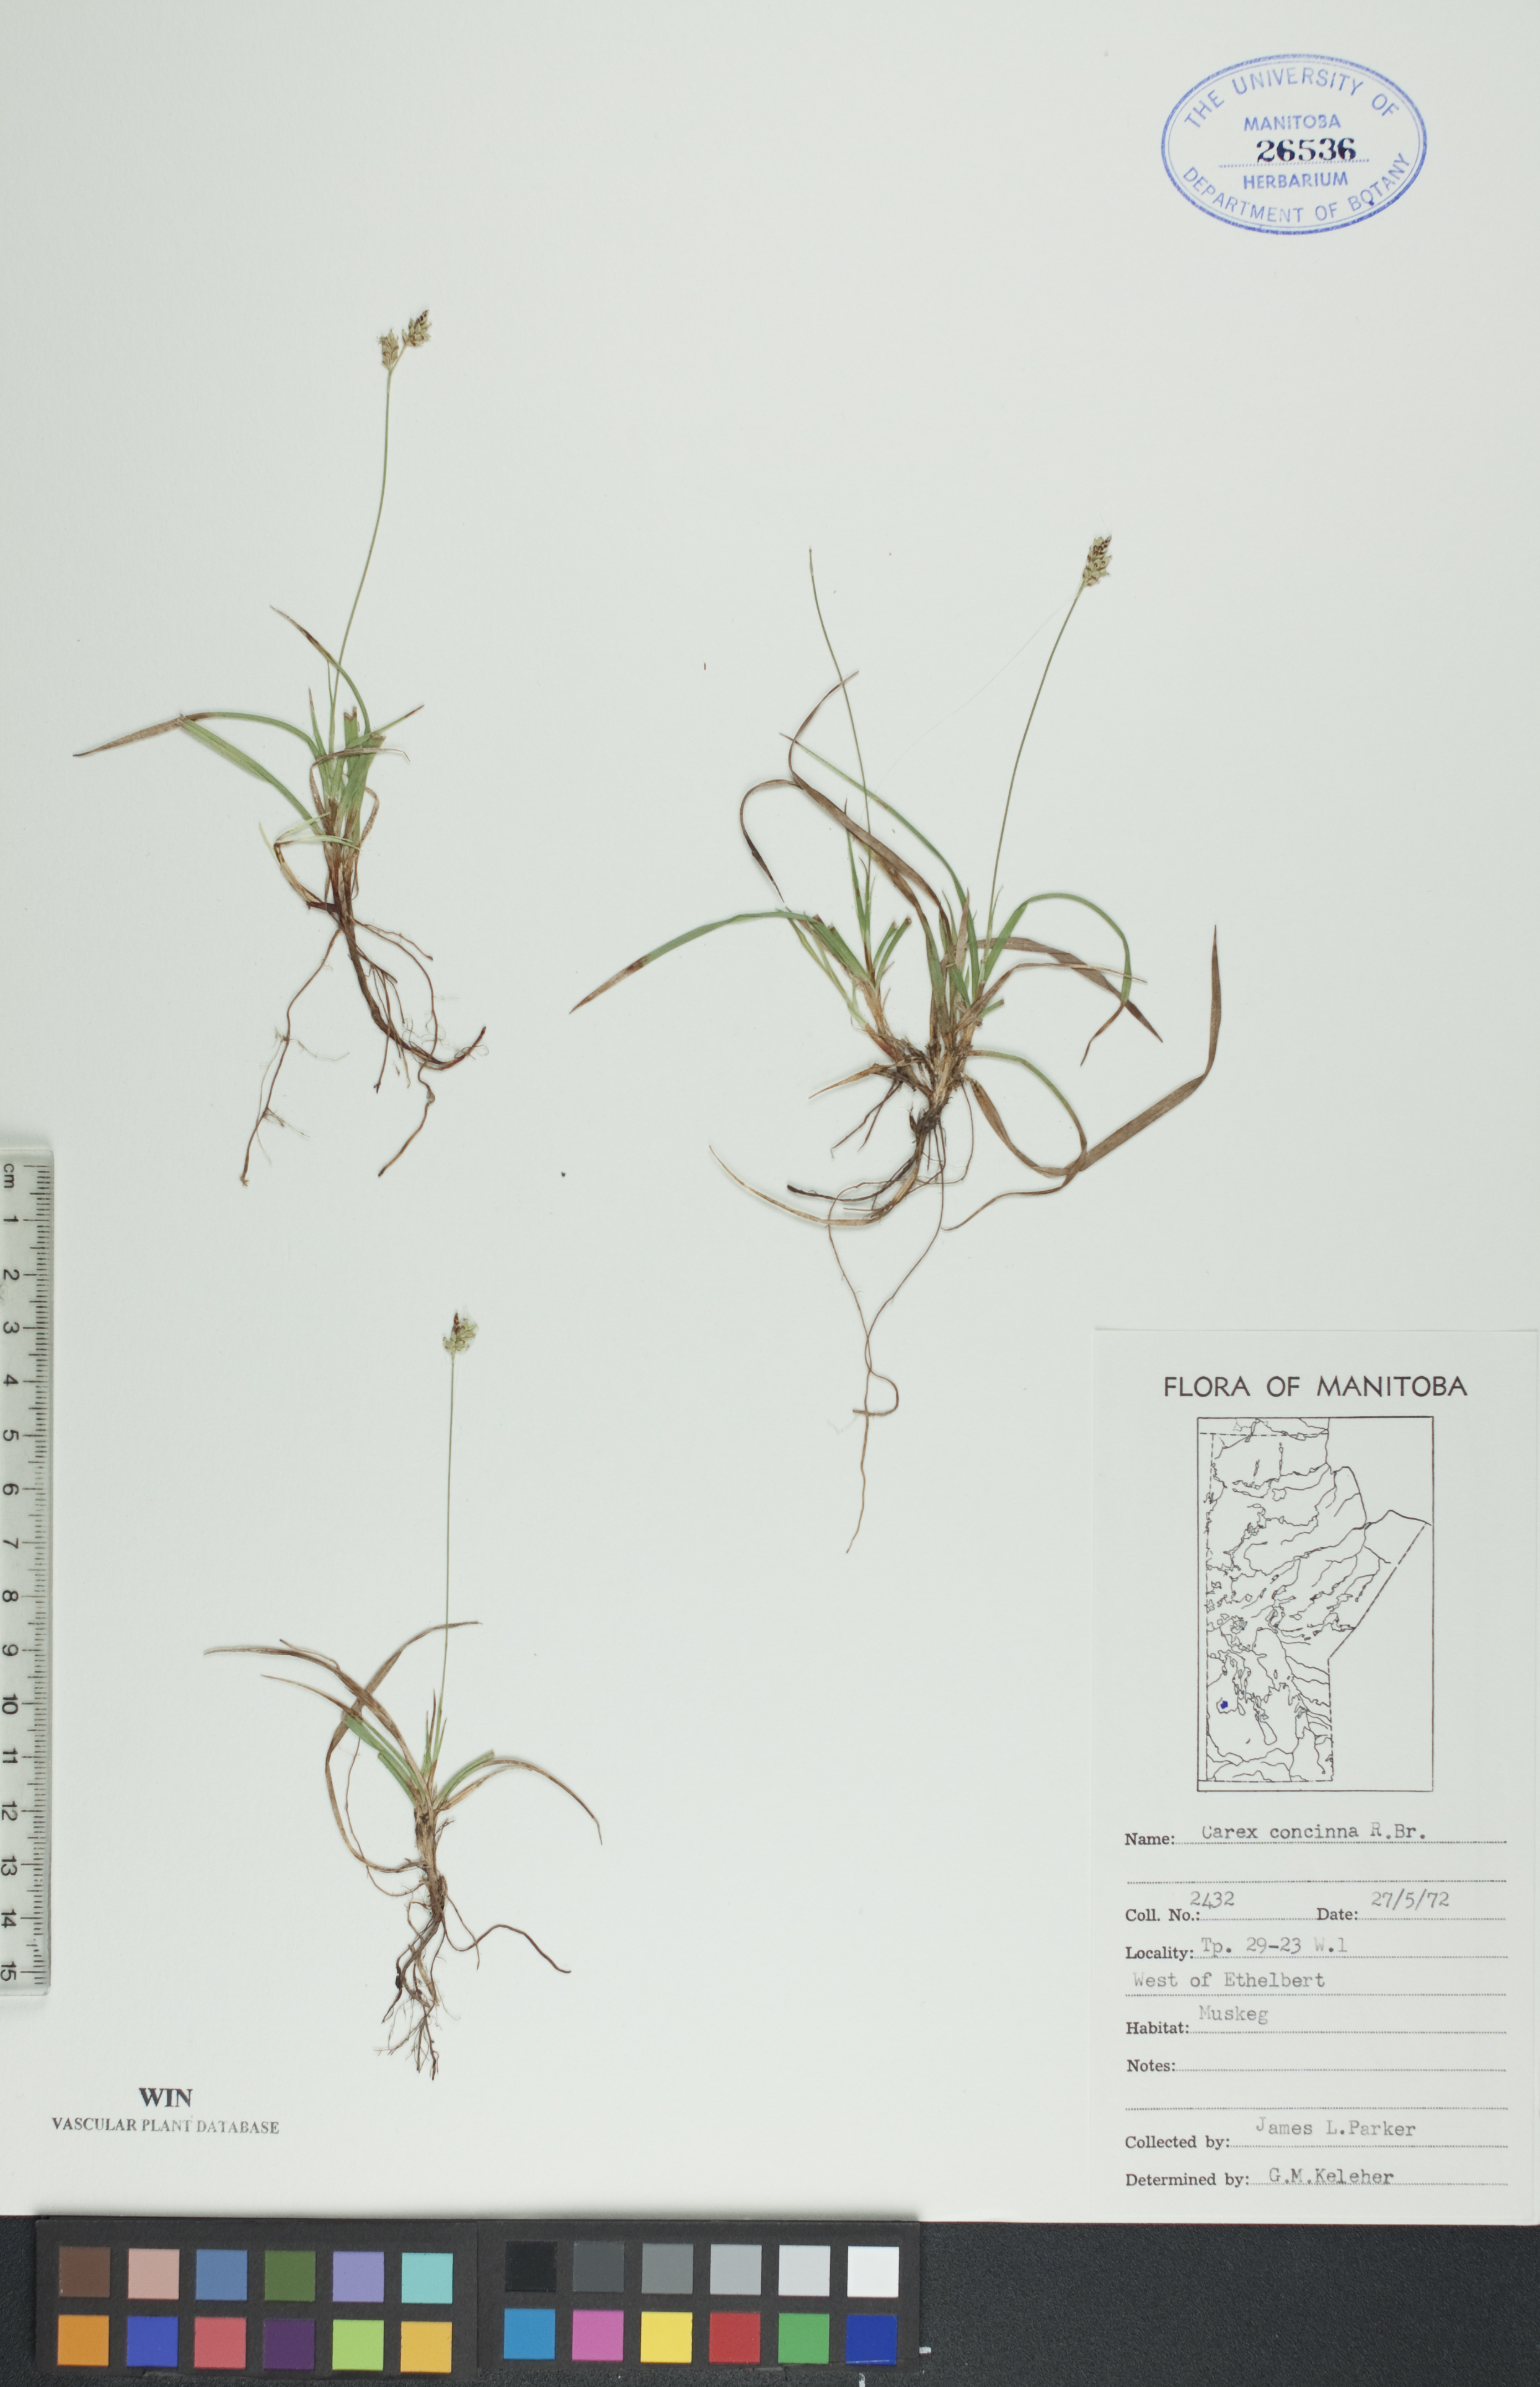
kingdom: Plantae
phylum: Tracheophyta
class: Liliopsida
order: Poales
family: Cyperaceae
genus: Carex
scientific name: Carex concinna
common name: Beautiful sedge
